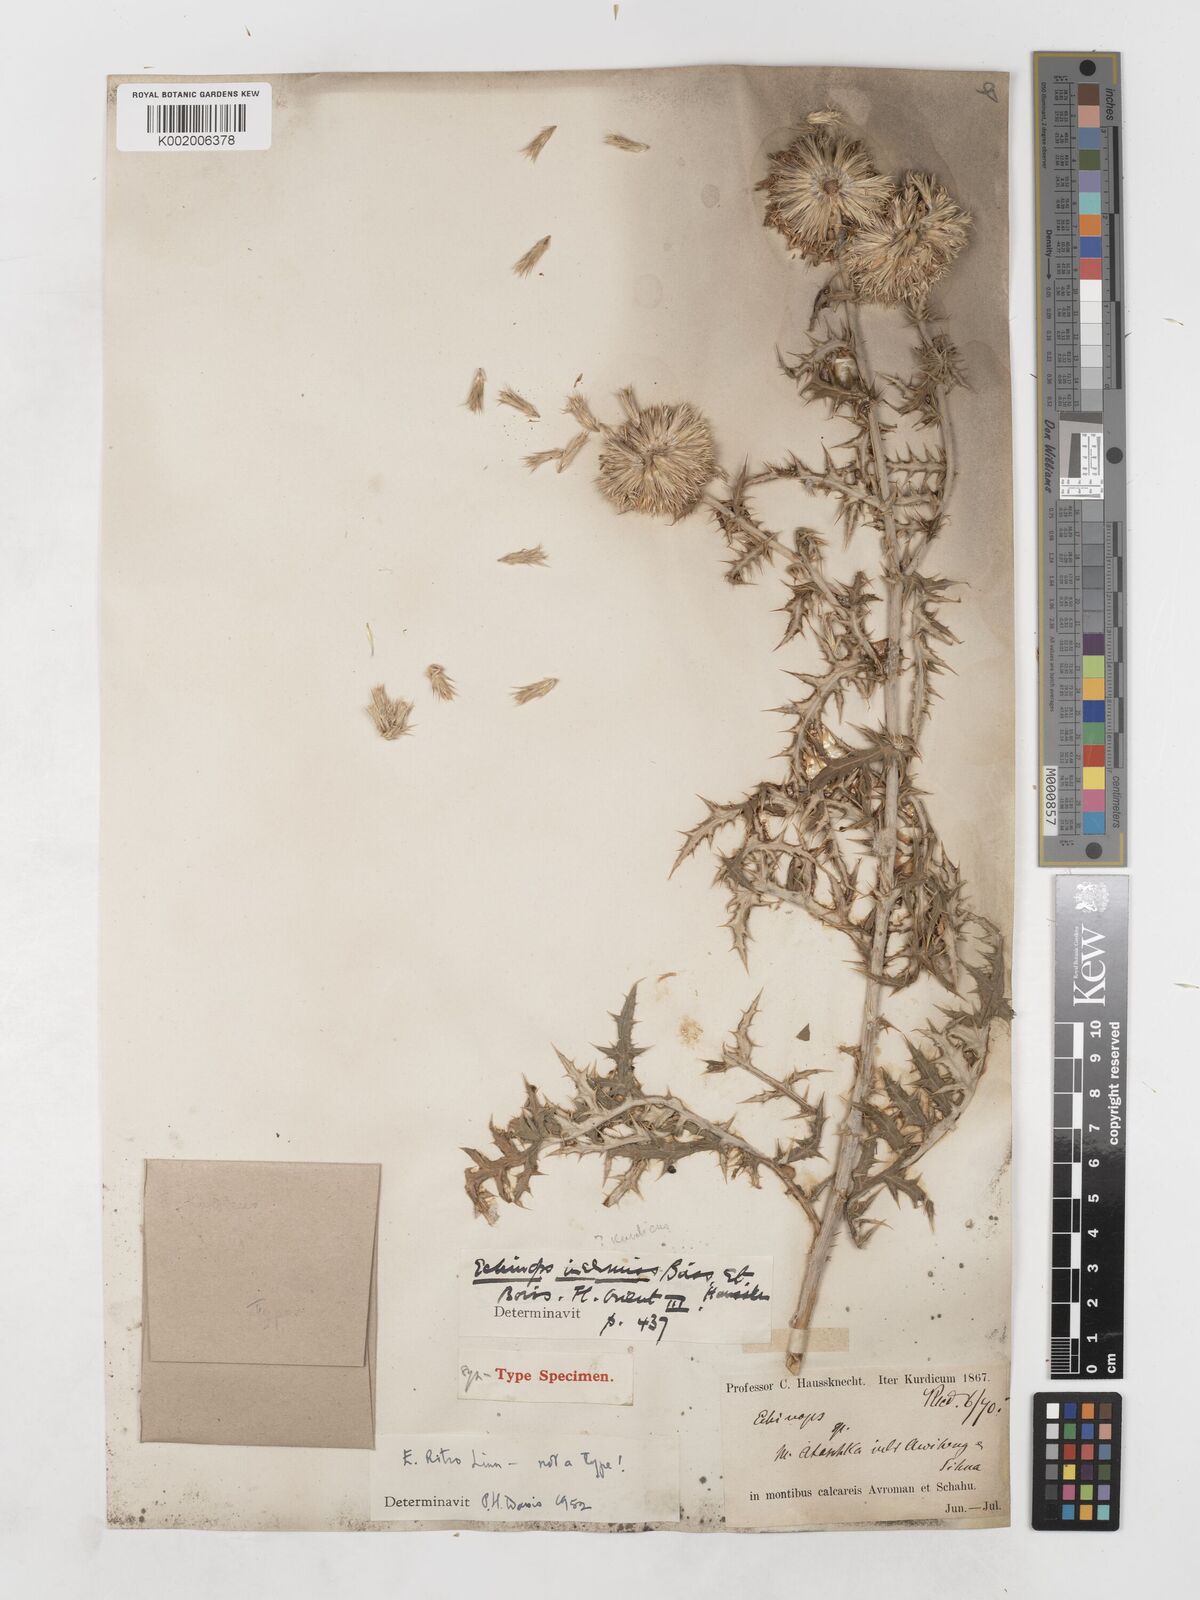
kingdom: Plantae
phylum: Tracheophyta
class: Magnoliopsida
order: Asterales
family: Asteraceae
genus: Echinops
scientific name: Echinops ritrodes
